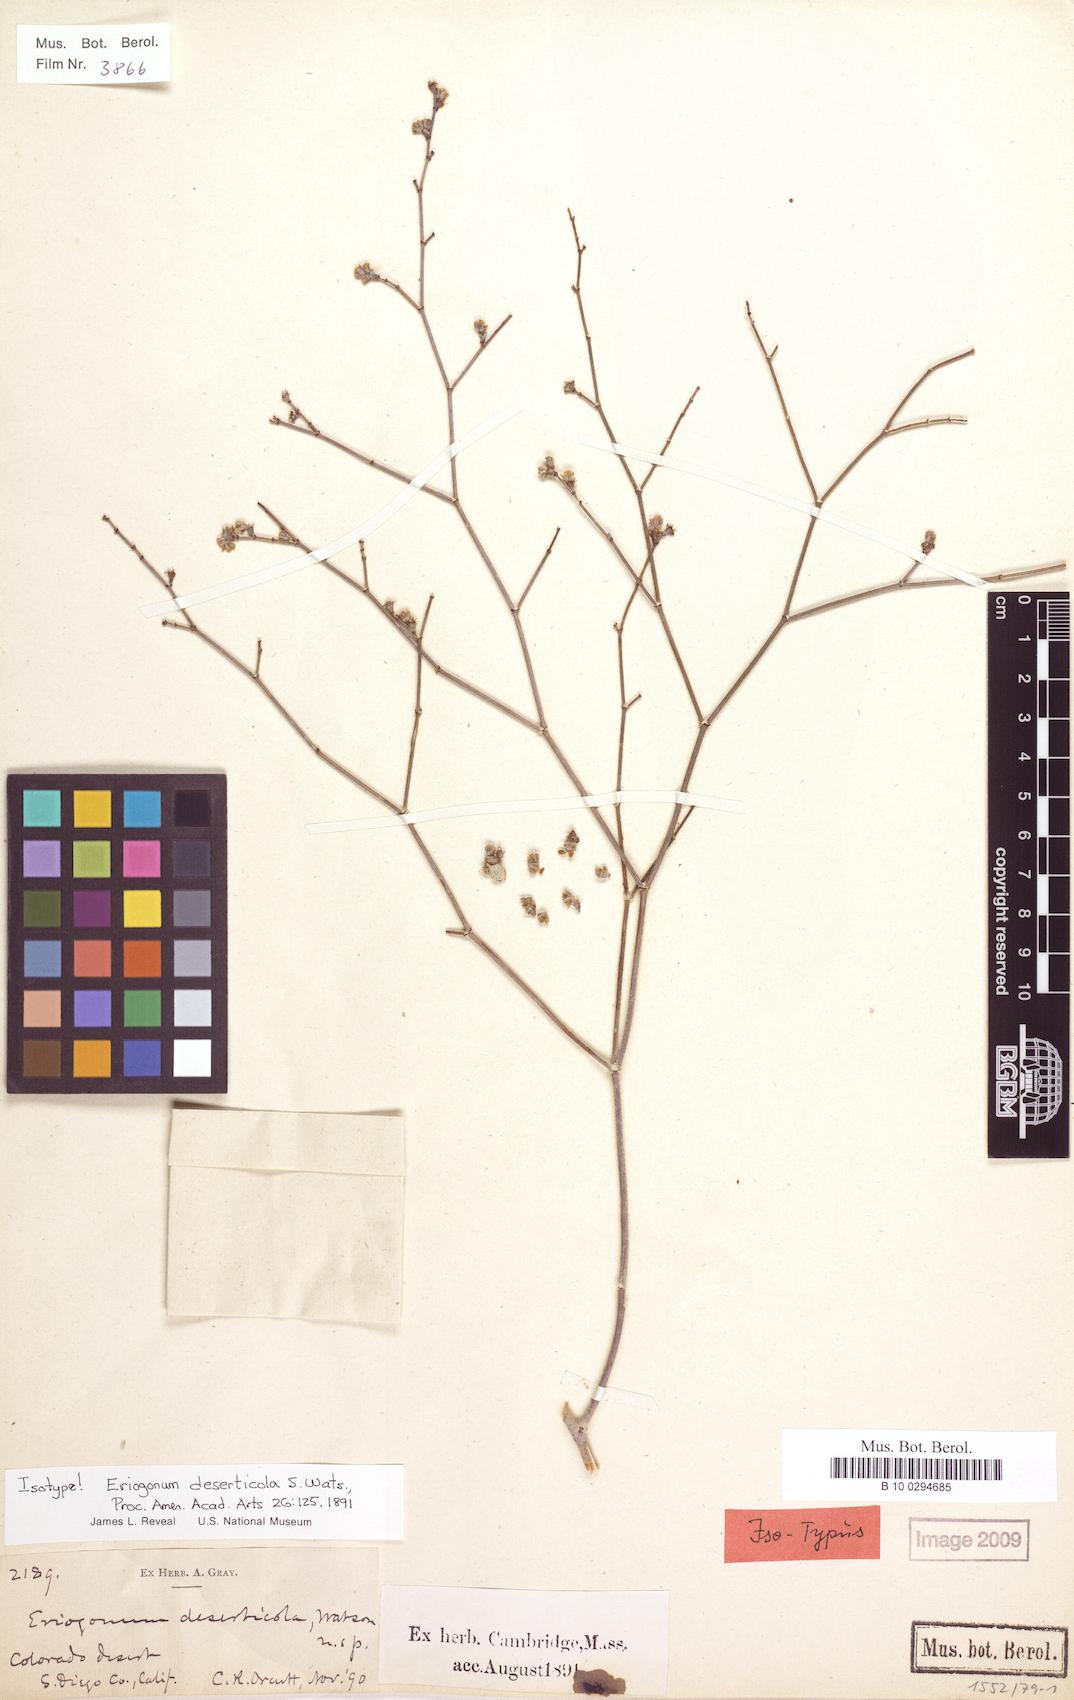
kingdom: Plantae
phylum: Tracheophyta
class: Magnoliopsida
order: Caryophyllales
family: Polygonaceae
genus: Eriogonum
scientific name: Eriogonum deserticola
